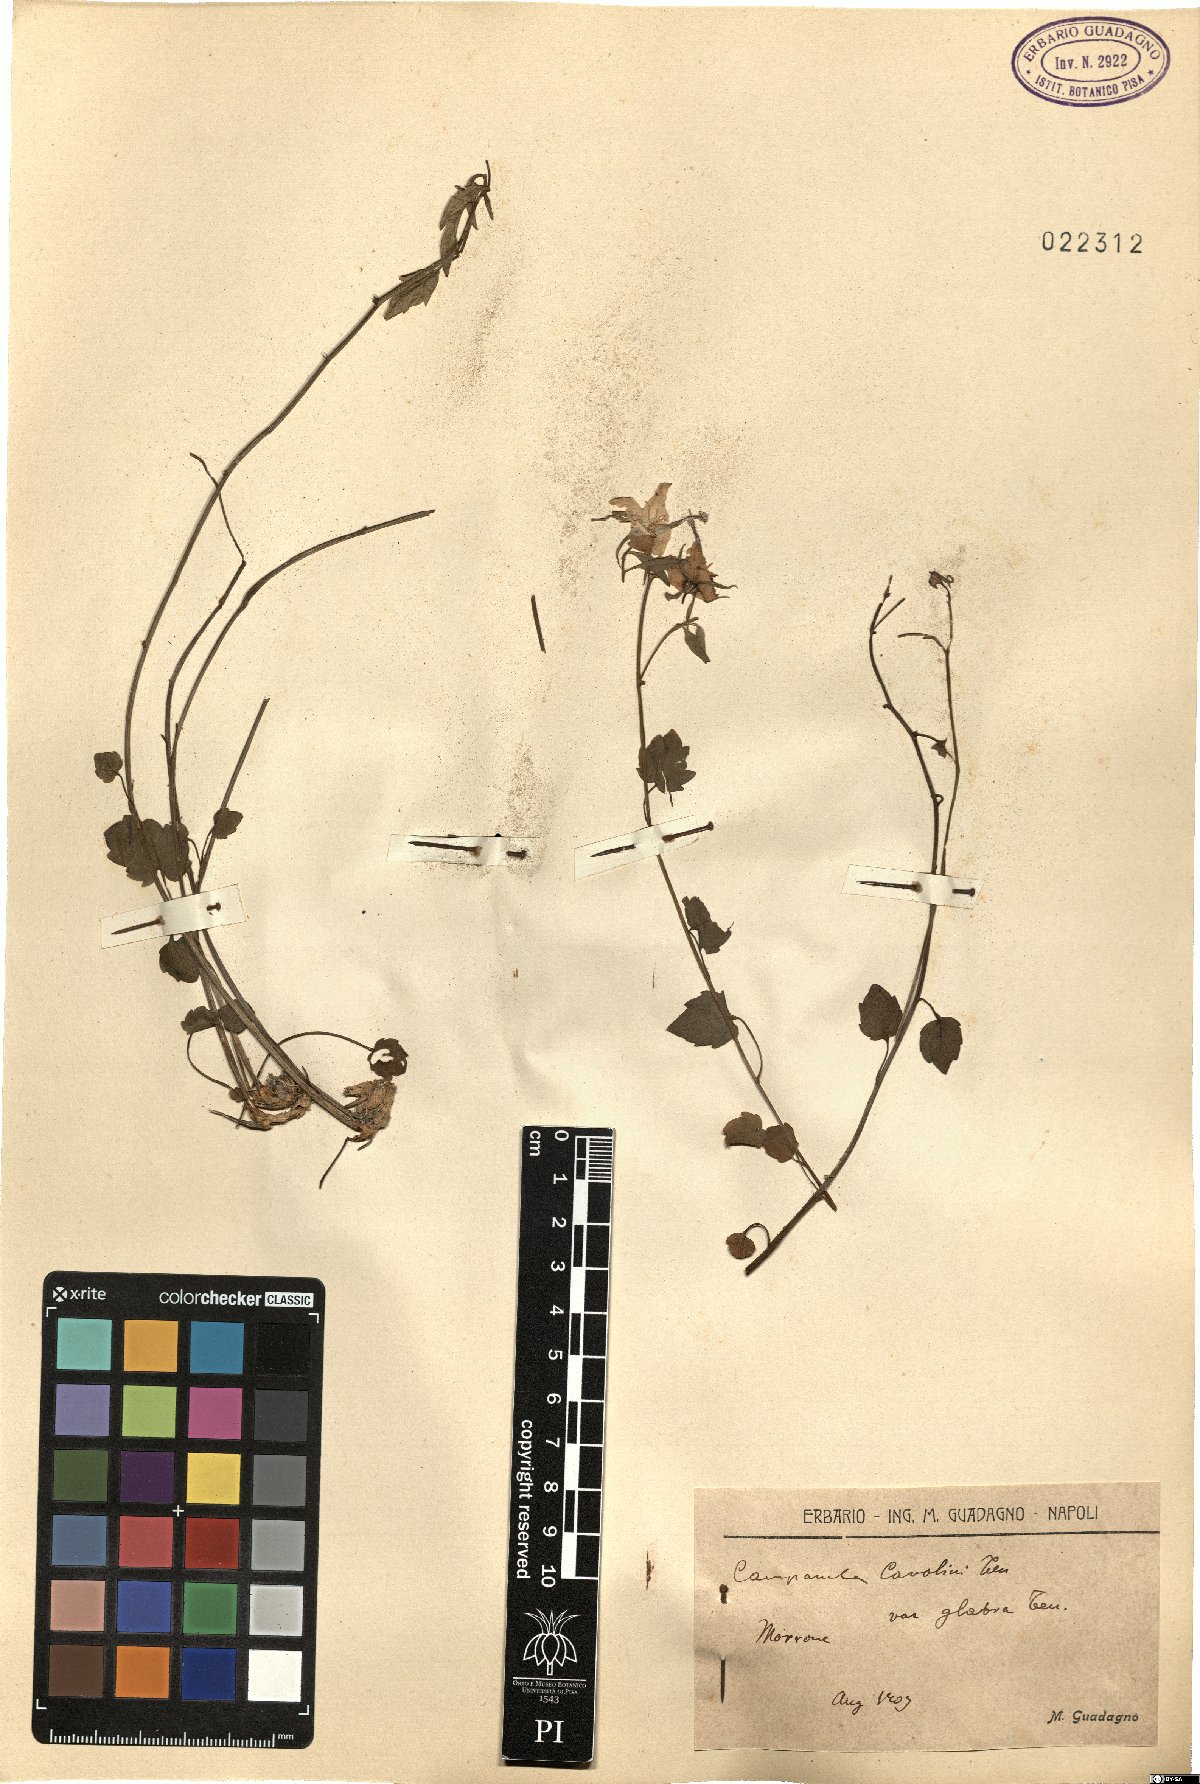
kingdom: Plantae
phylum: Tracheophyta
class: Magnoliopsida
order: Asterales
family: Campanulaceae
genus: Campanula
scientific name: Campanula fragilis
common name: Italian bellflower
